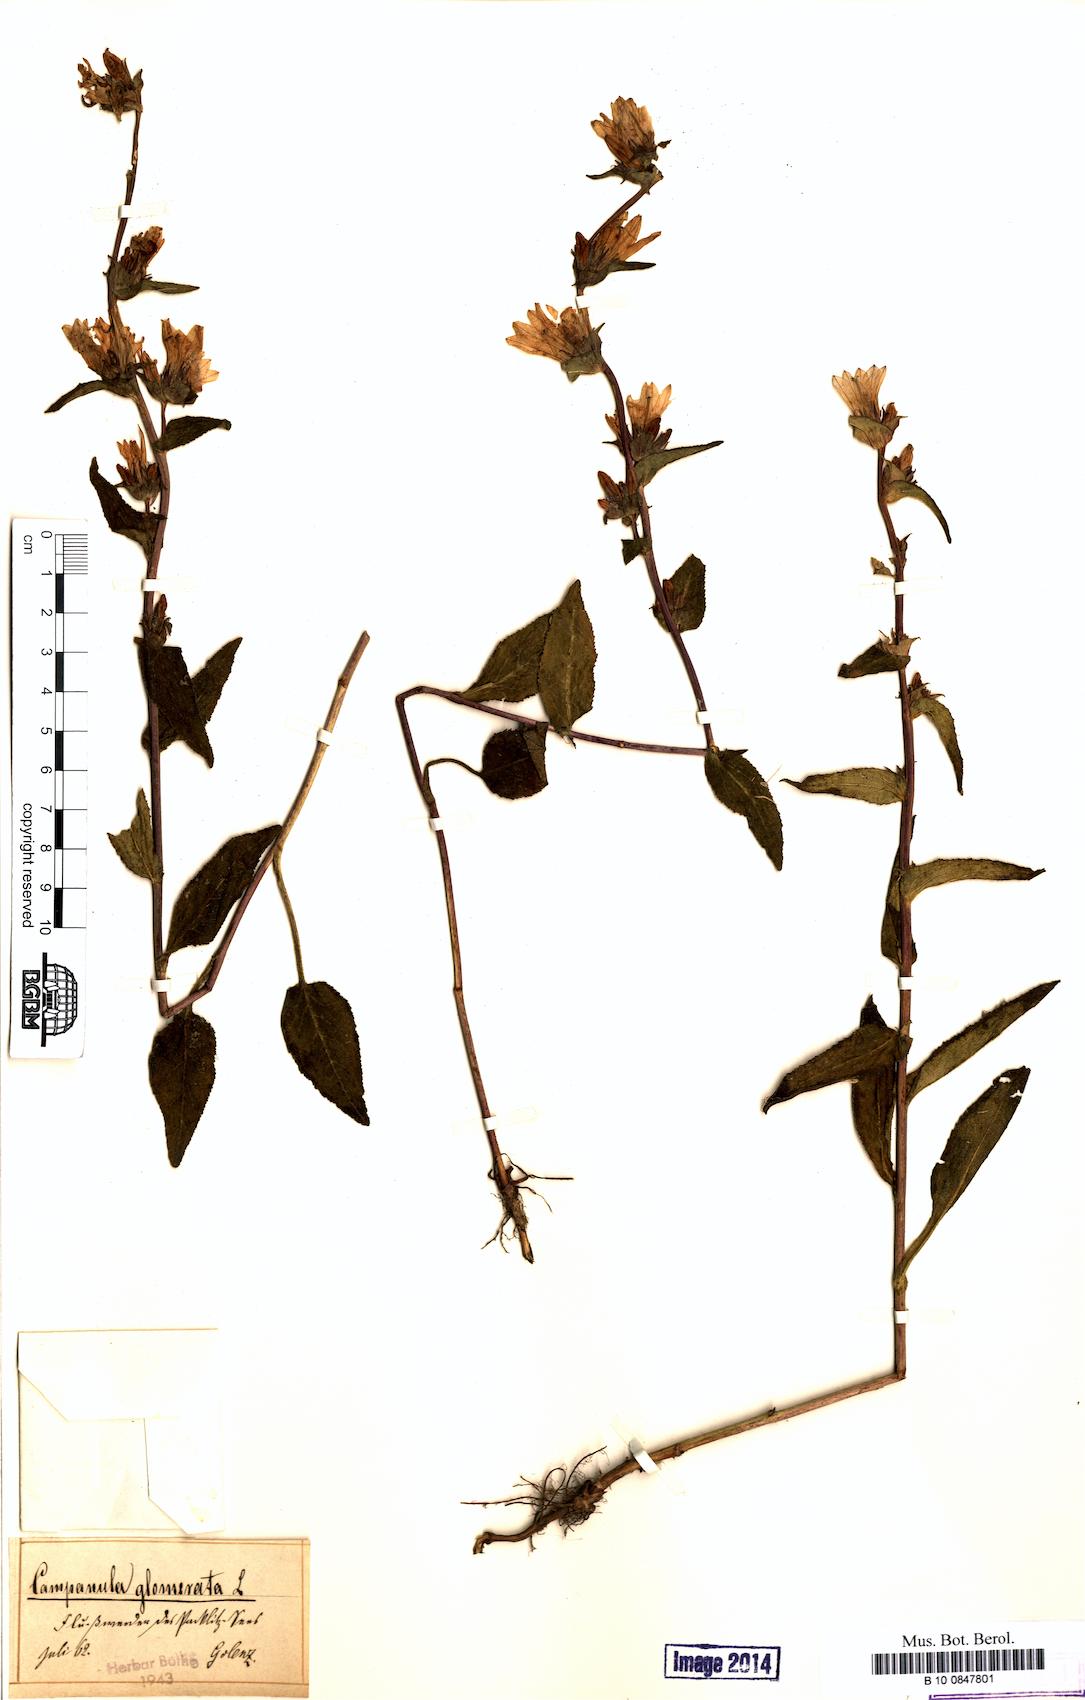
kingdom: Plantae
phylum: Tracheophyta
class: Magnoliopsida
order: Asterales
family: Campanulaceae
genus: Campanula
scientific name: Campanula glomerata
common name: Clustered bellflower
